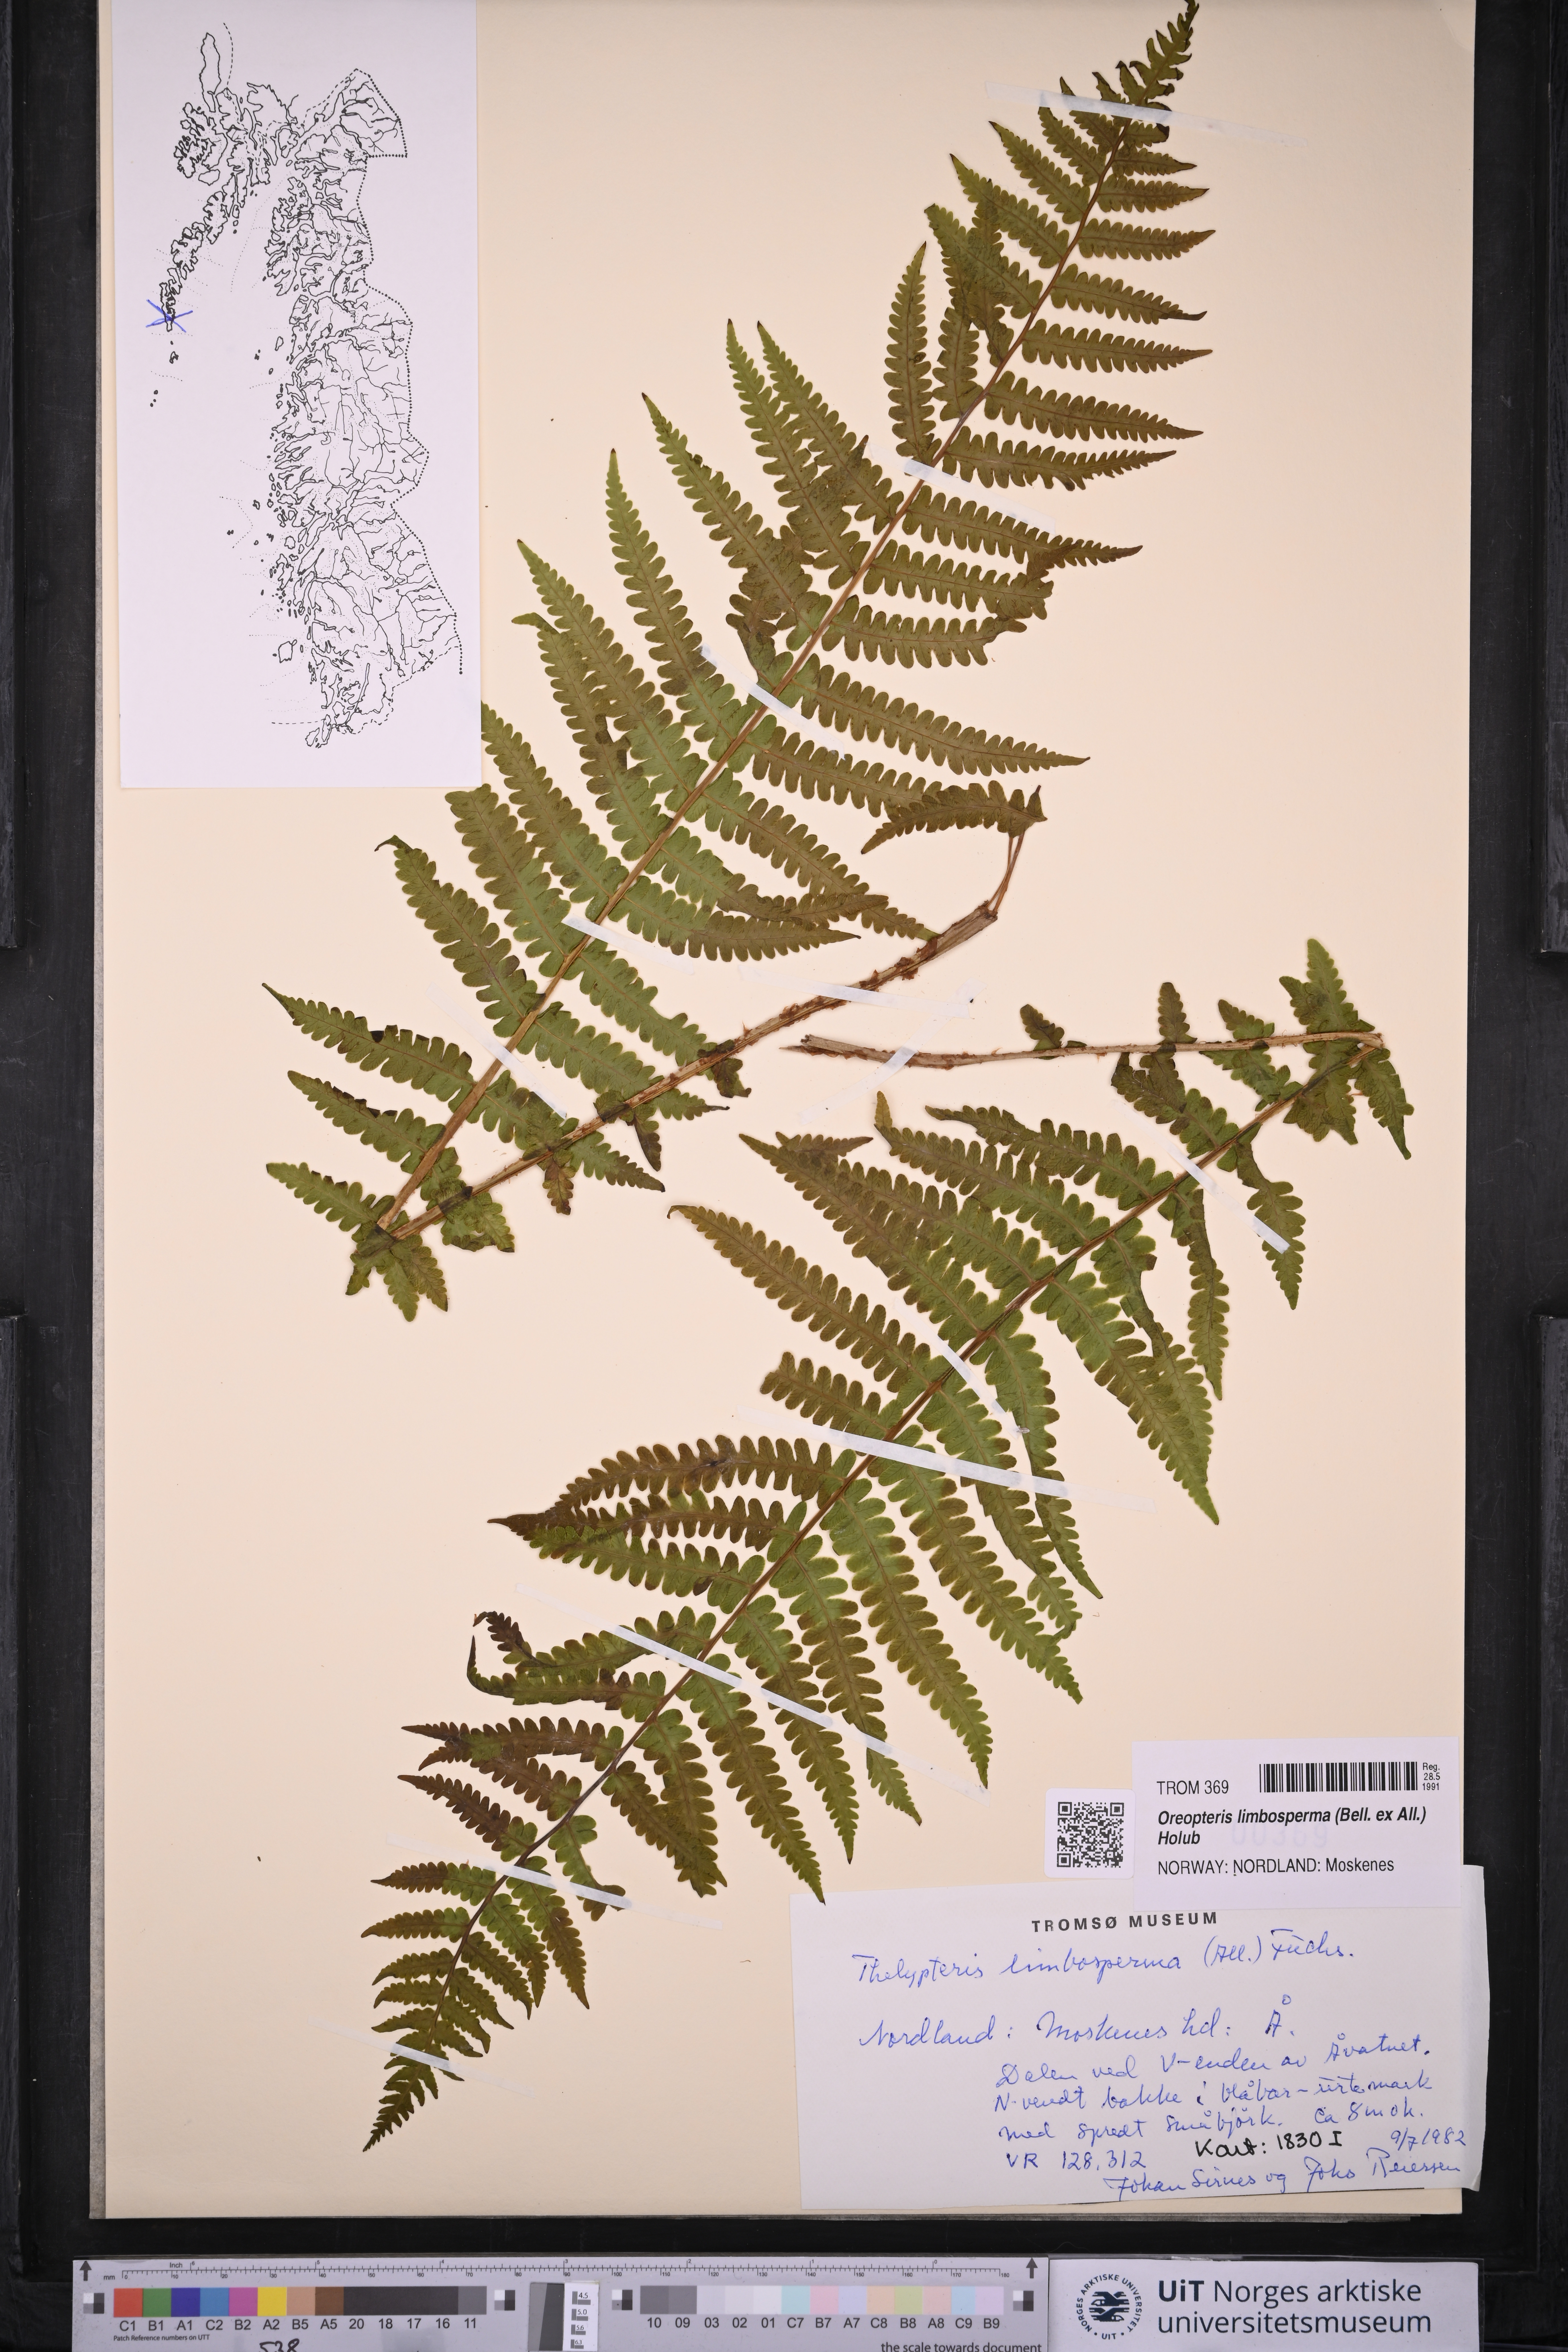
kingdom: Plantae
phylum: Tracheophyta
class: Polypodiopsida
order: Polypodiales
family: Thelypteridaceae
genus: Oreopteris
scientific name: Oreopteris limbosperma
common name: Lemon-scented fern
